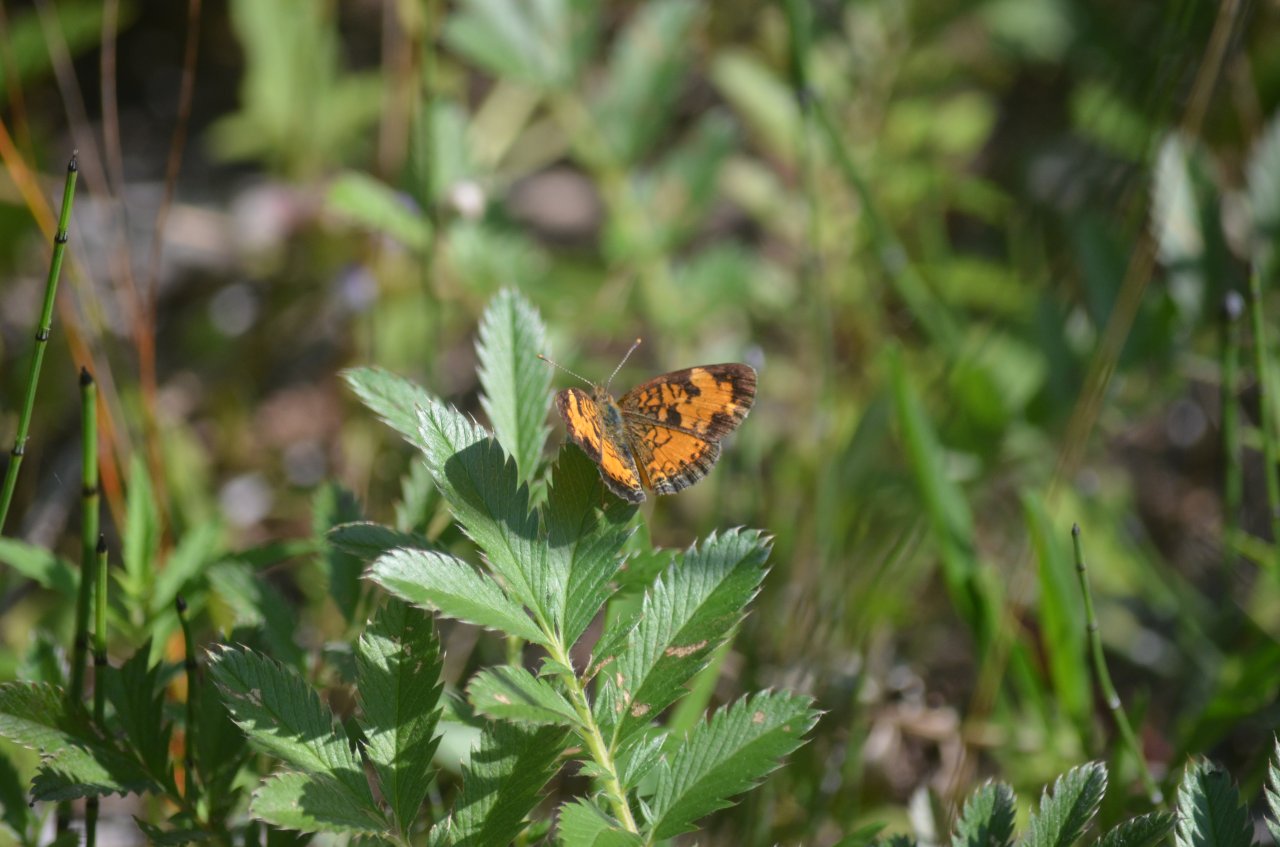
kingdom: Animalia
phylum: Arthropoda
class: Insecta
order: Lepidoptera
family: Nymphalidae
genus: Phyciodes
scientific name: Phyciodes tharos
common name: Northern Crescent
